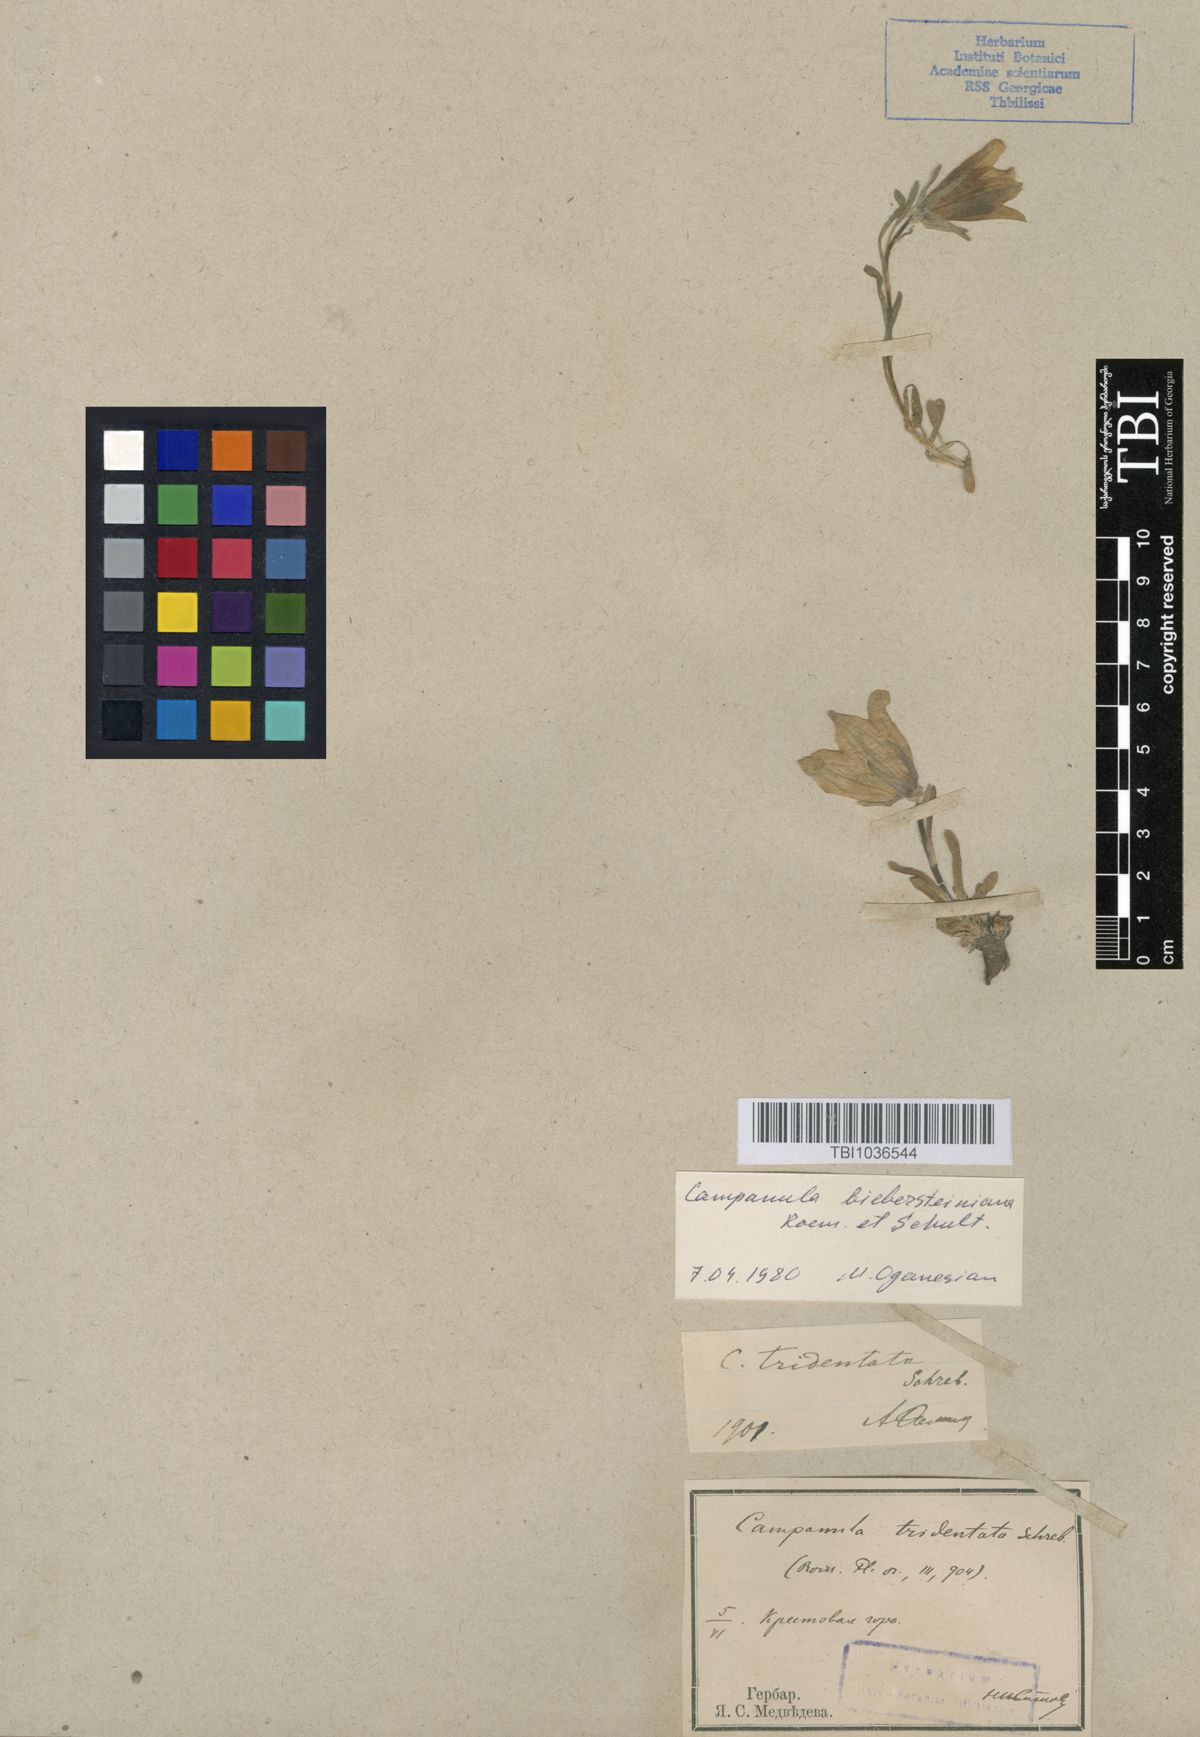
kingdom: Plantae
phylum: Tracheophyta
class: Magnoliopsida
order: Asterales
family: Campanulaceae
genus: Campanula
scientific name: Campanula tridentata
